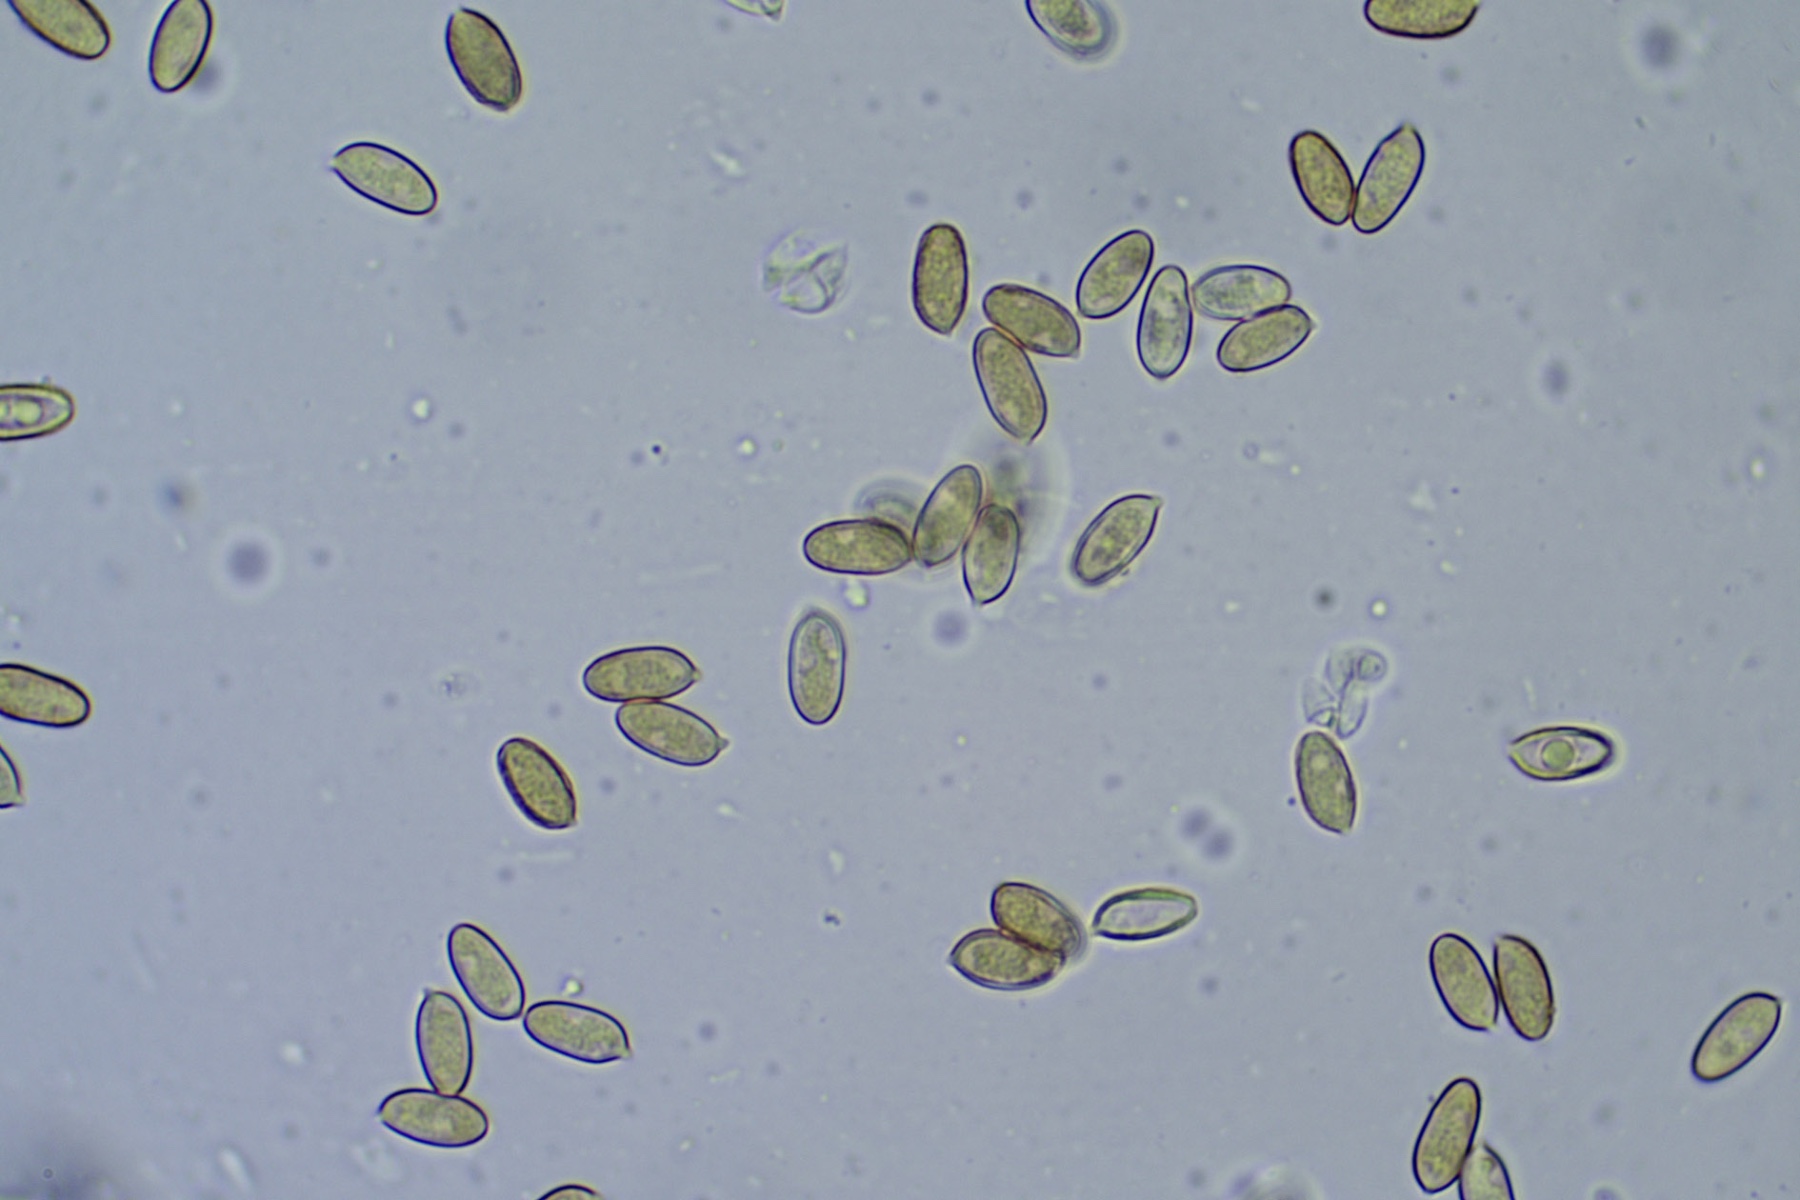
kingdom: Fungi
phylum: Basidiomycota
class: Agaricomycetes
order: Agaricales
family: Hymenogastraceae
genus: Hebeloma
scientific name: Hebeloma cylindrosporum
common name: fyrre-tåreblad
